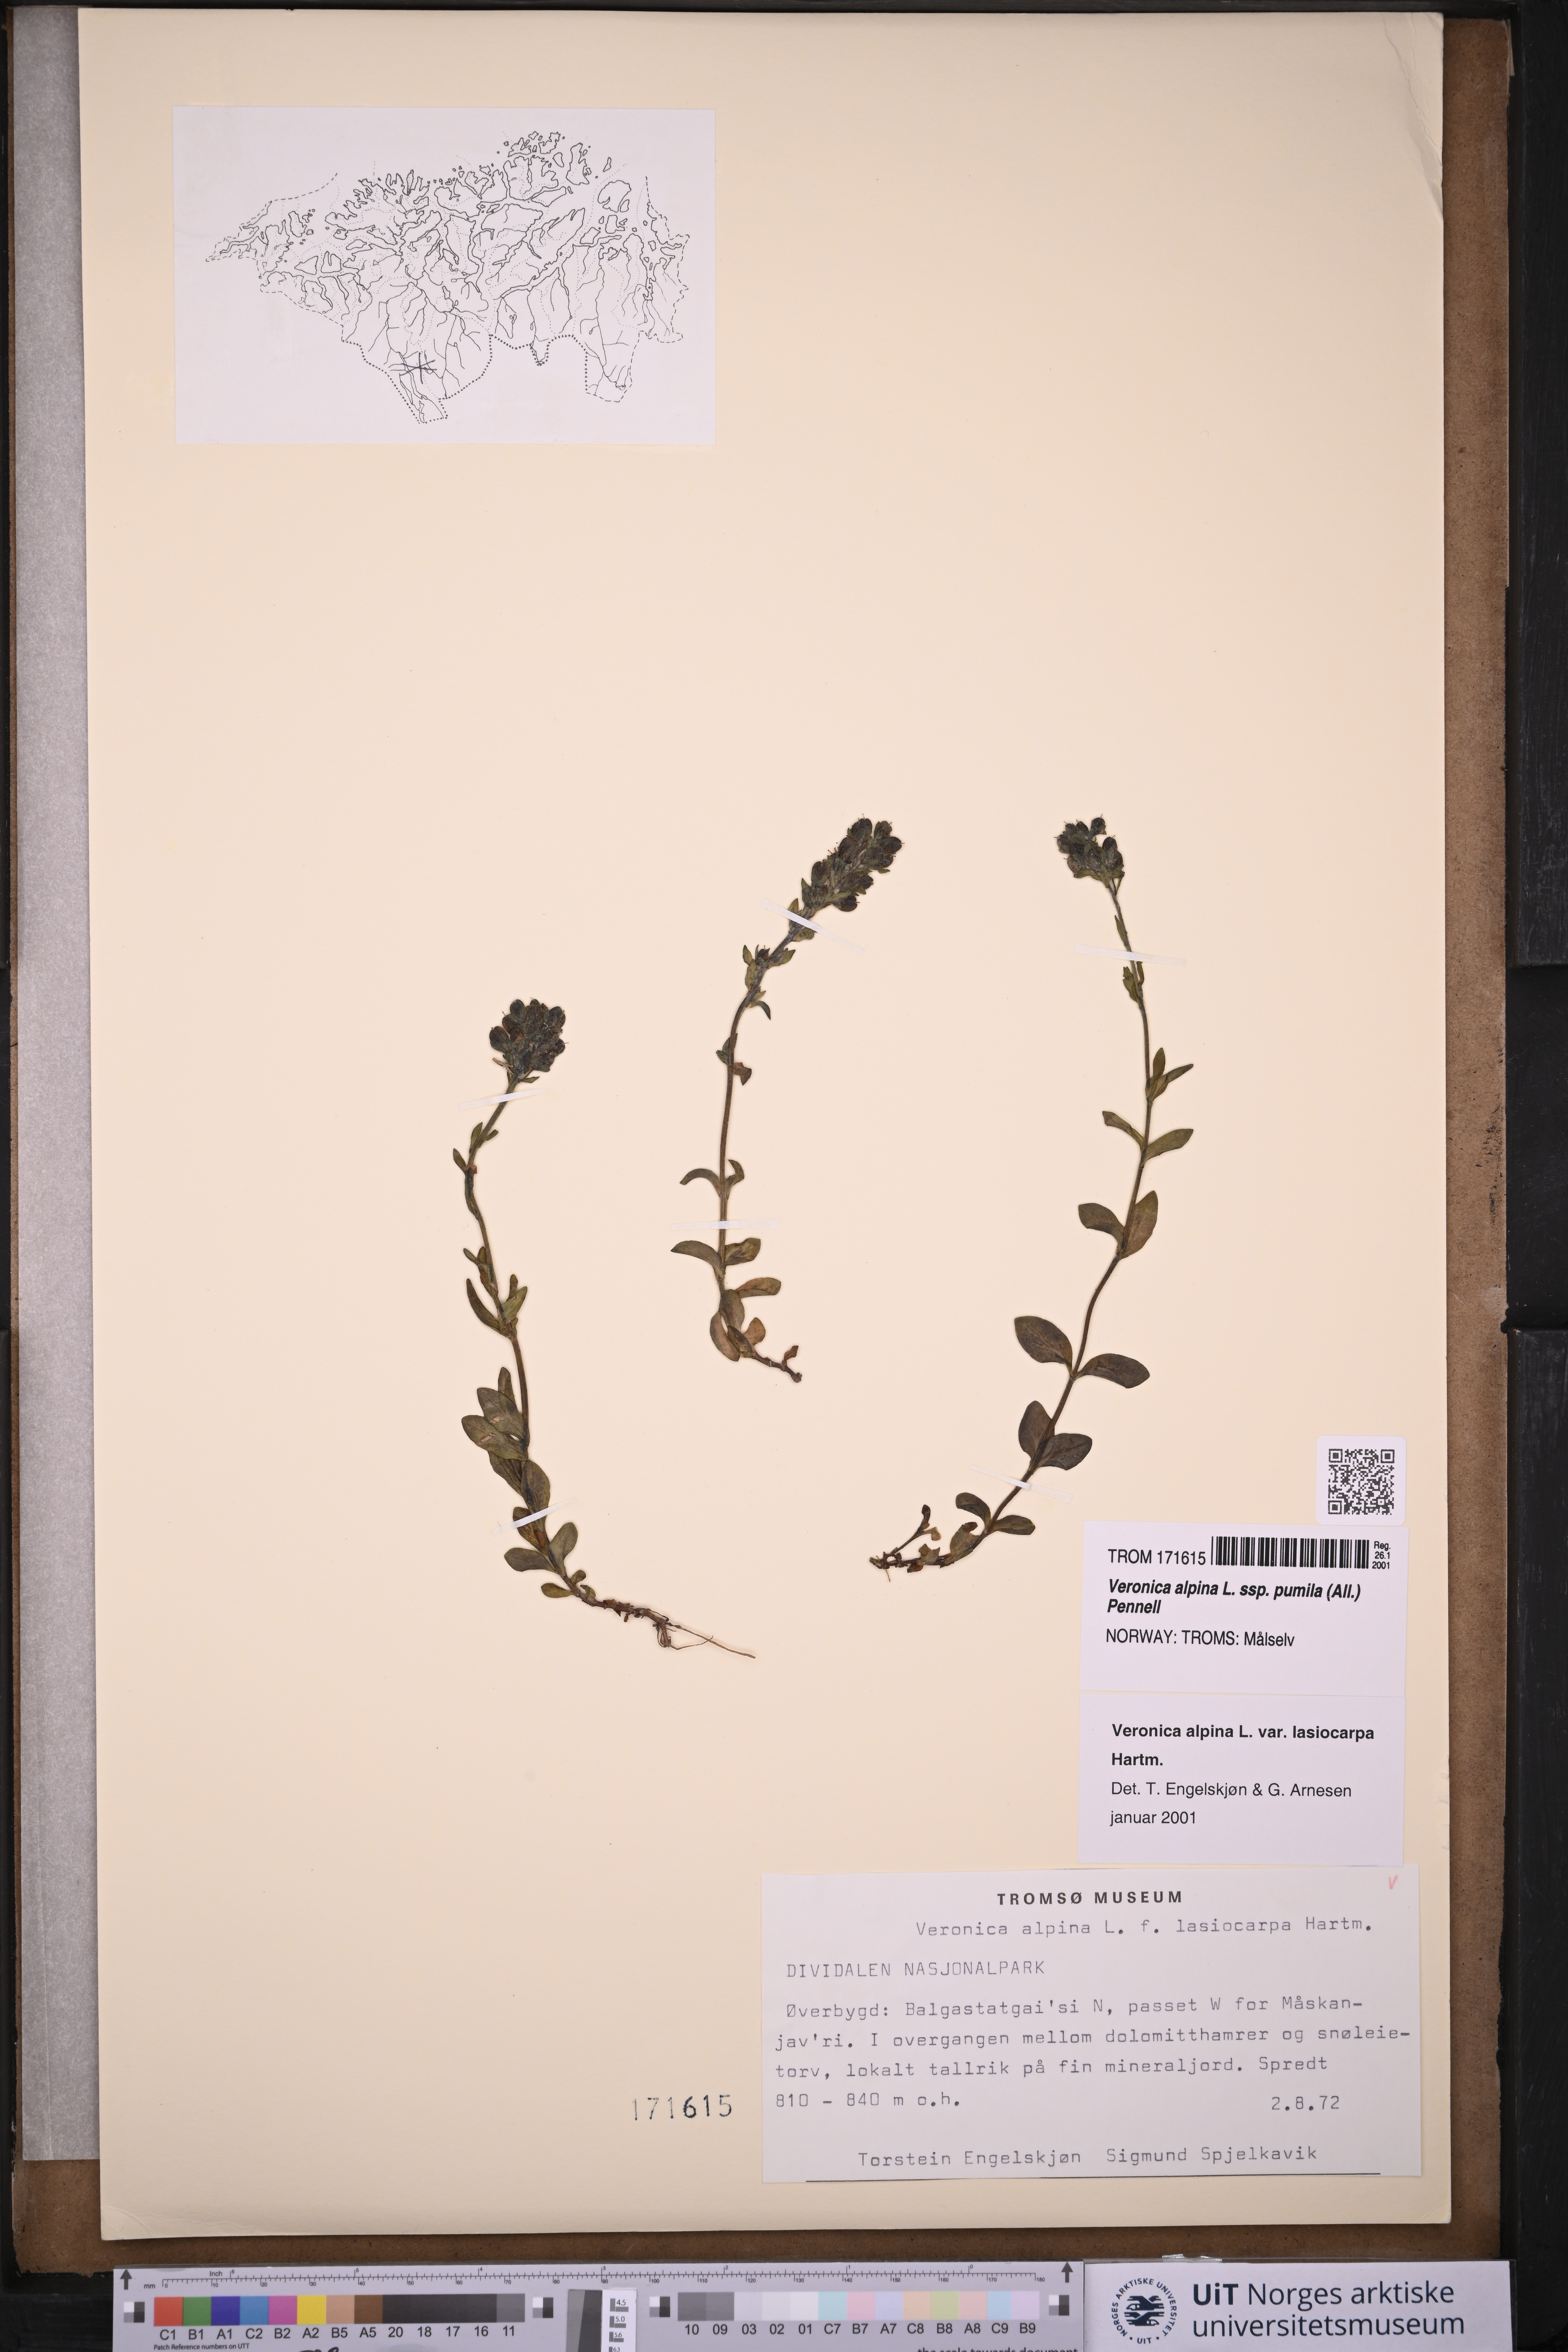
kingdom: Plantae
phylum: Tracheophyta
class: Magnoliopsida
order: Lamiales
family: Plantaginaceae
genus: Veronica
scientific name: Veronica alpina
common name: Alpine speedwell
